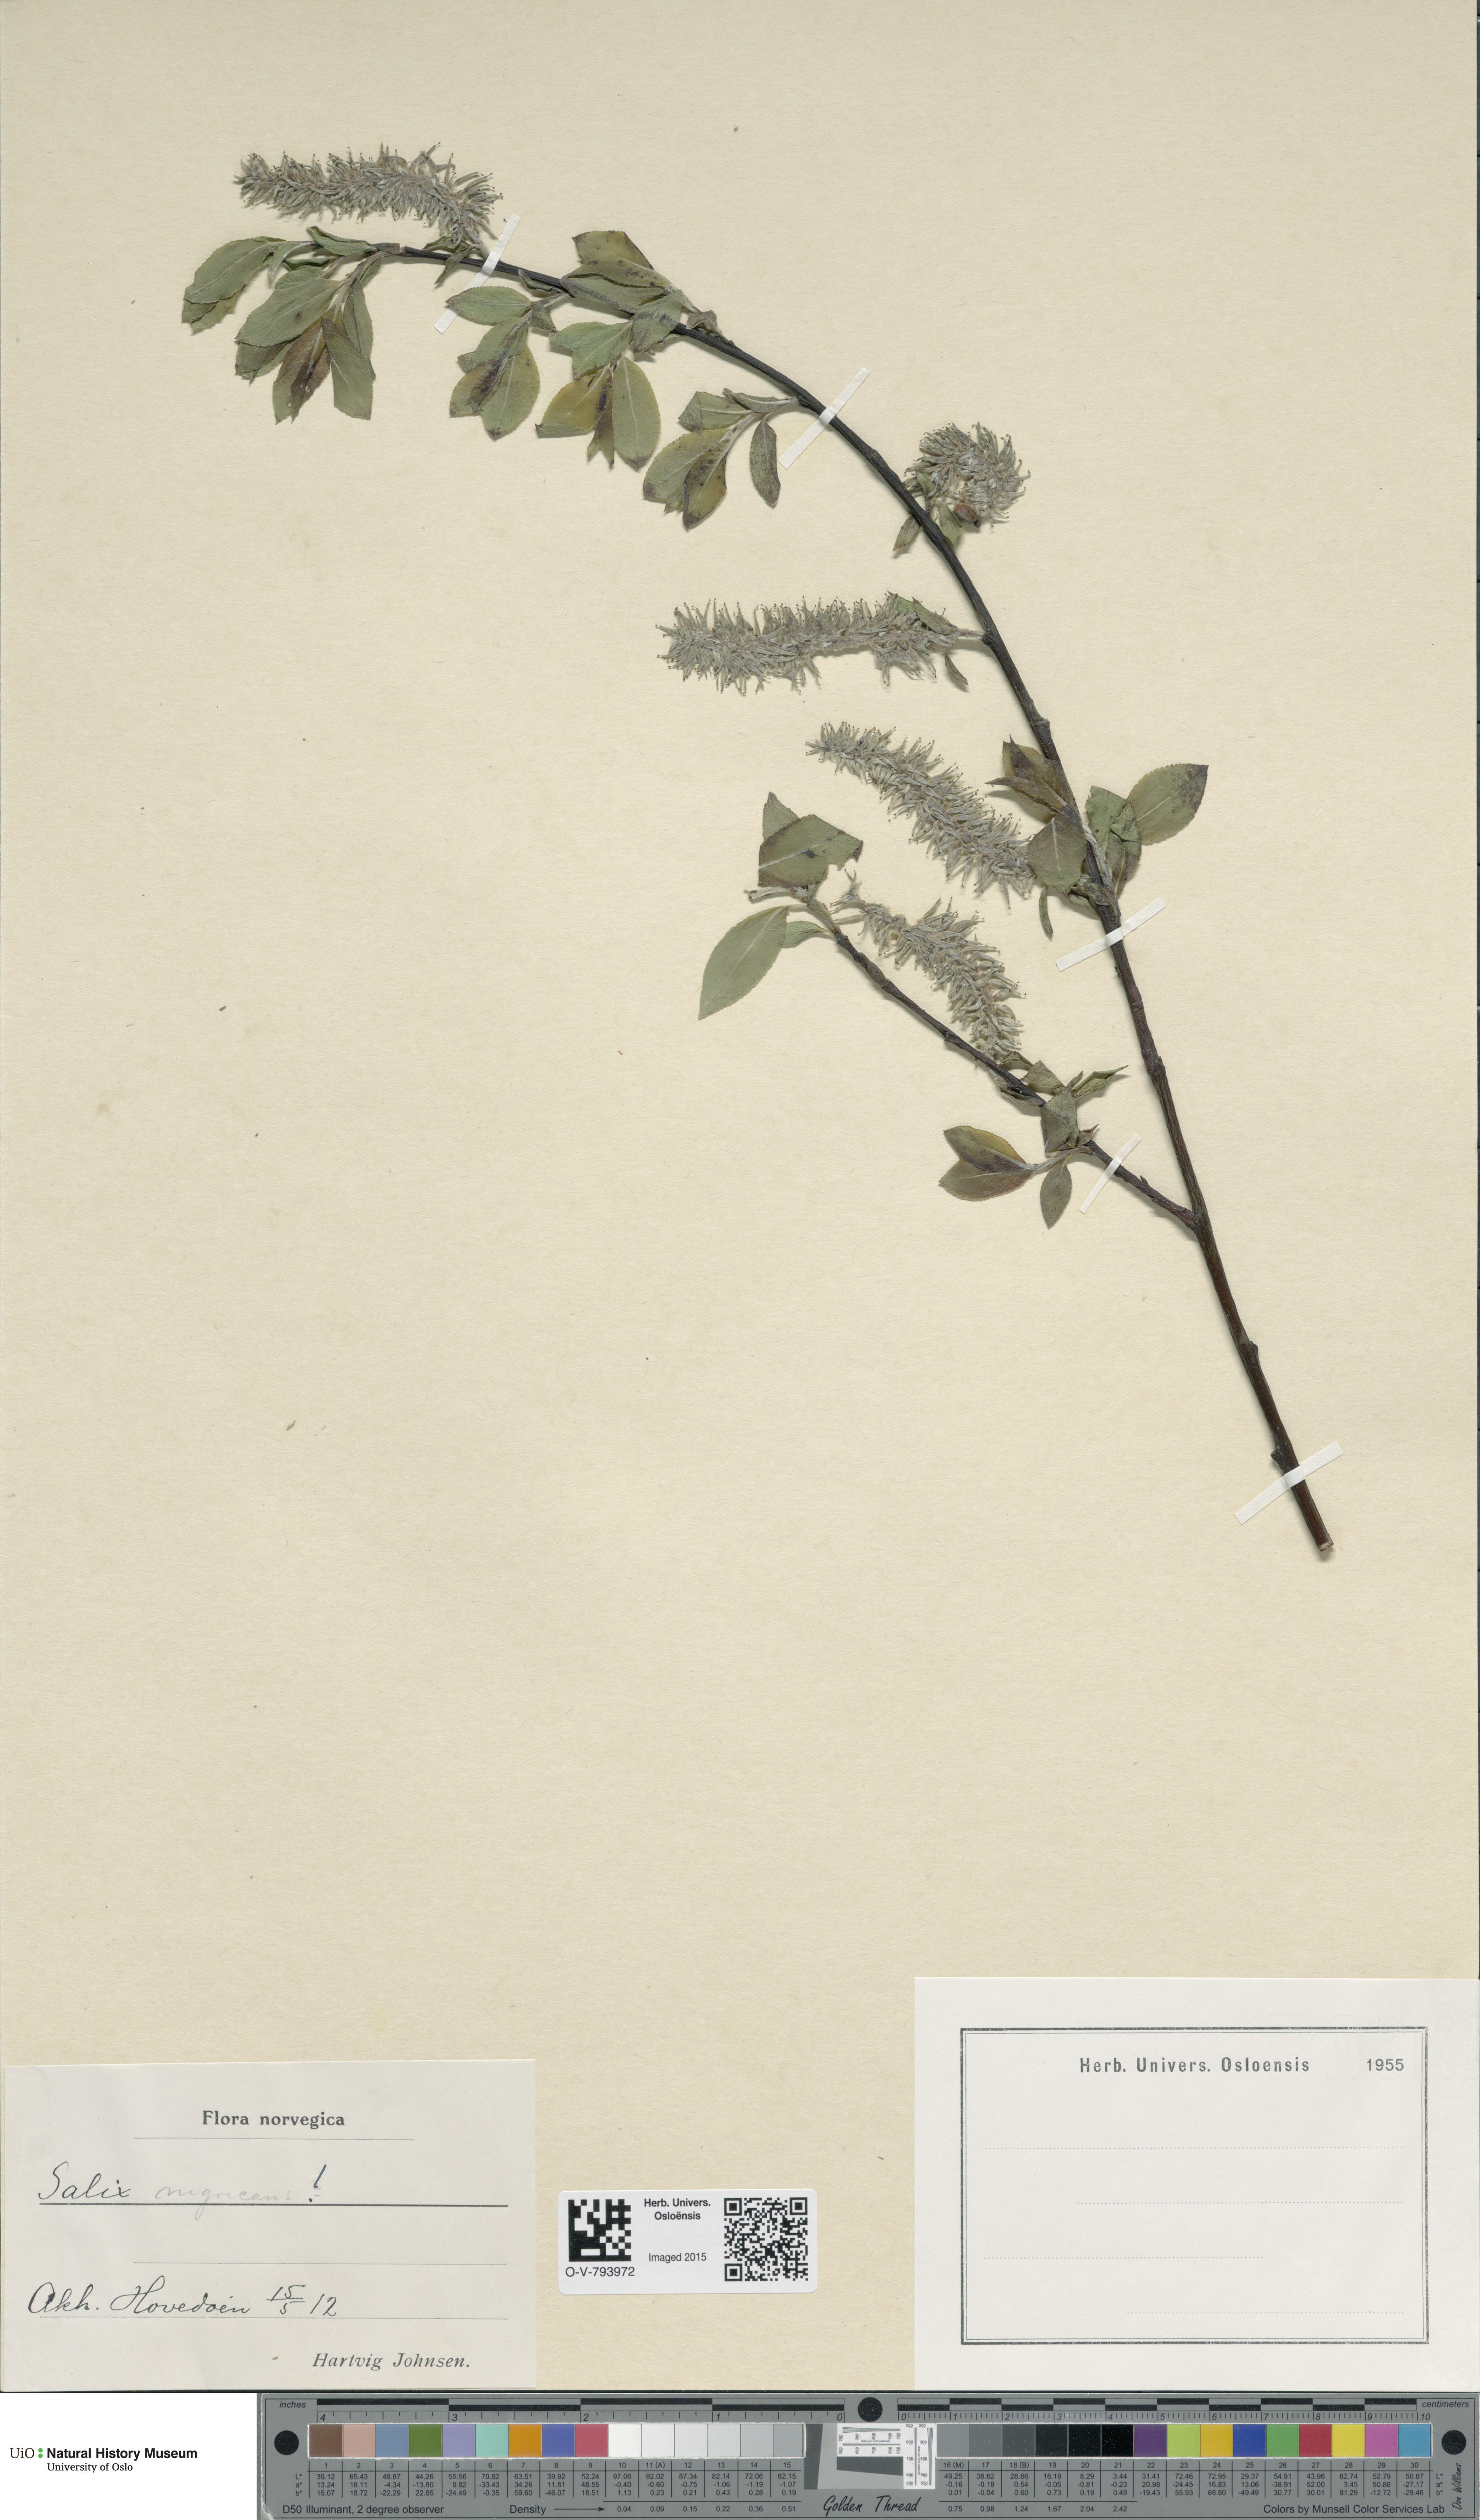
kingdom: Plantae
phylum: Tracheophyta
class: Magnoliopsida
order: Malpighiales
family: Salicaceae
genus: Salix
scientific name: Salix myrsinifolia
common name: Dark-leaved willow
